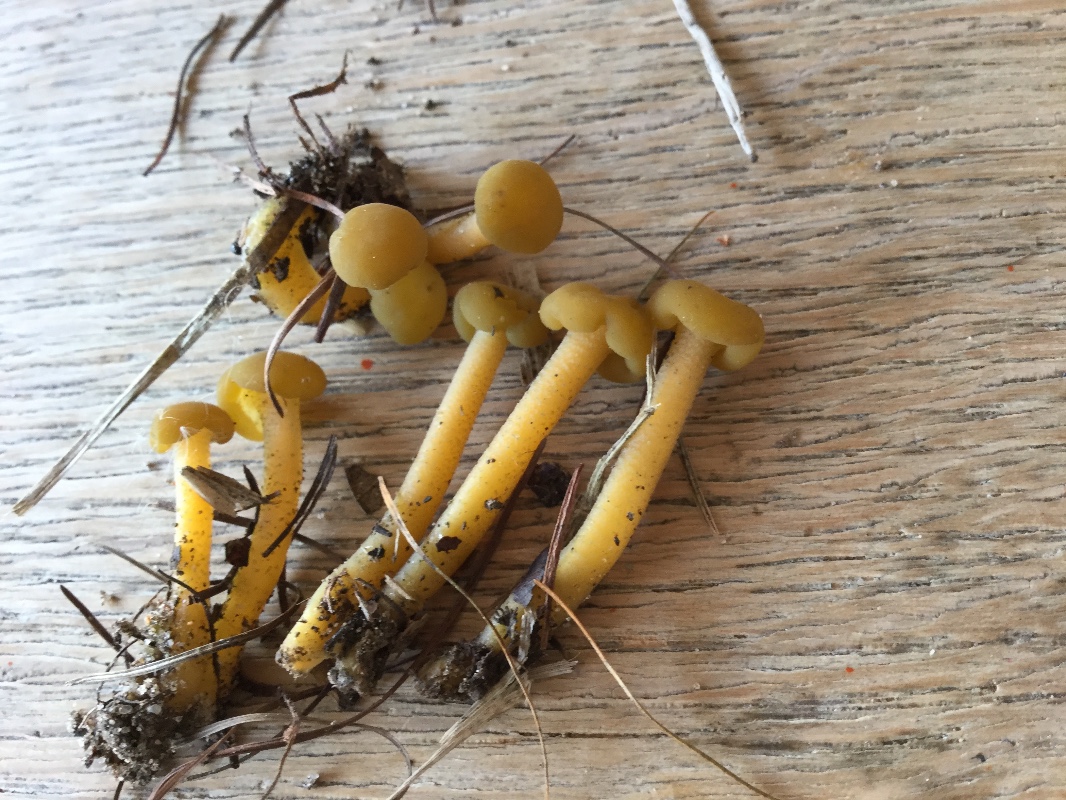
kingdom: Fungi
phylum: Ascomycota
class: Leotiomycetes
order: Leotiales
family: Leotiaceae
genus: Leotia
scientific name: Leotia lubrica
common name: ravsvamp
